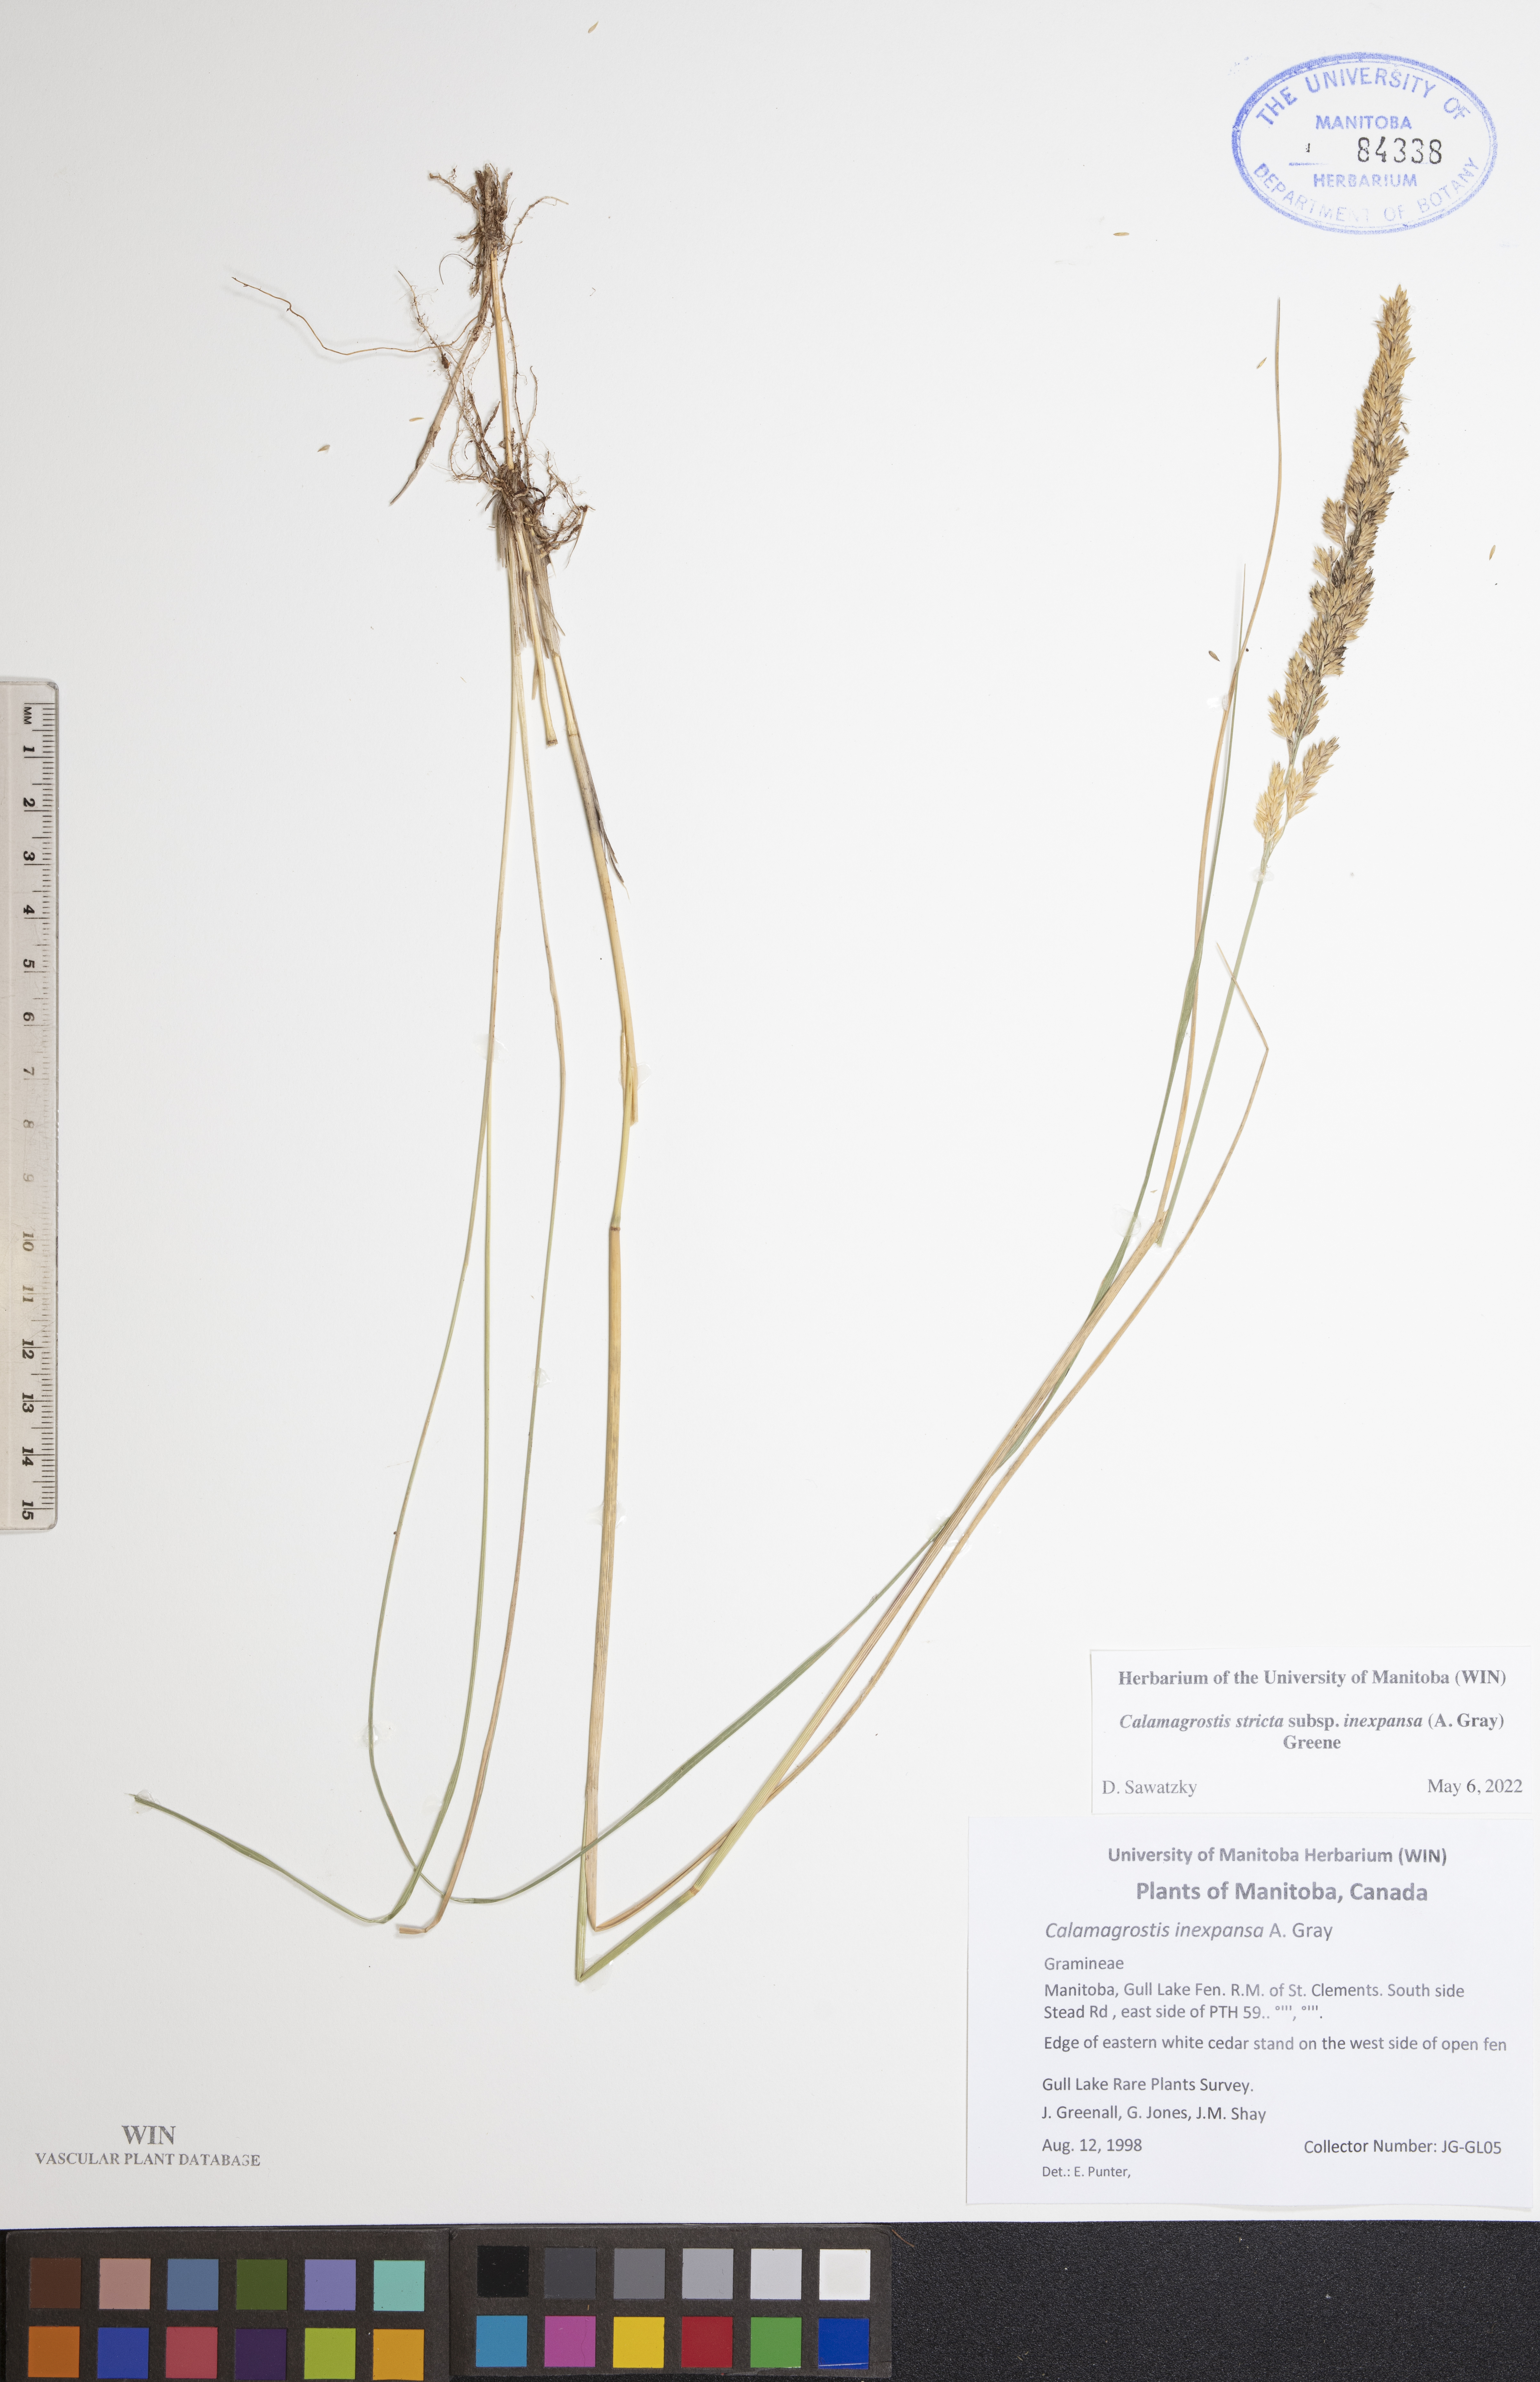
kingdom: Plantae
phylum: Tracheophyta
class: Liliopsida
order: Poales
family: Poaceae
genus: Calamagrostis
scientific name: Calamagrostis inexpansa
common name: Northern reedgrass
